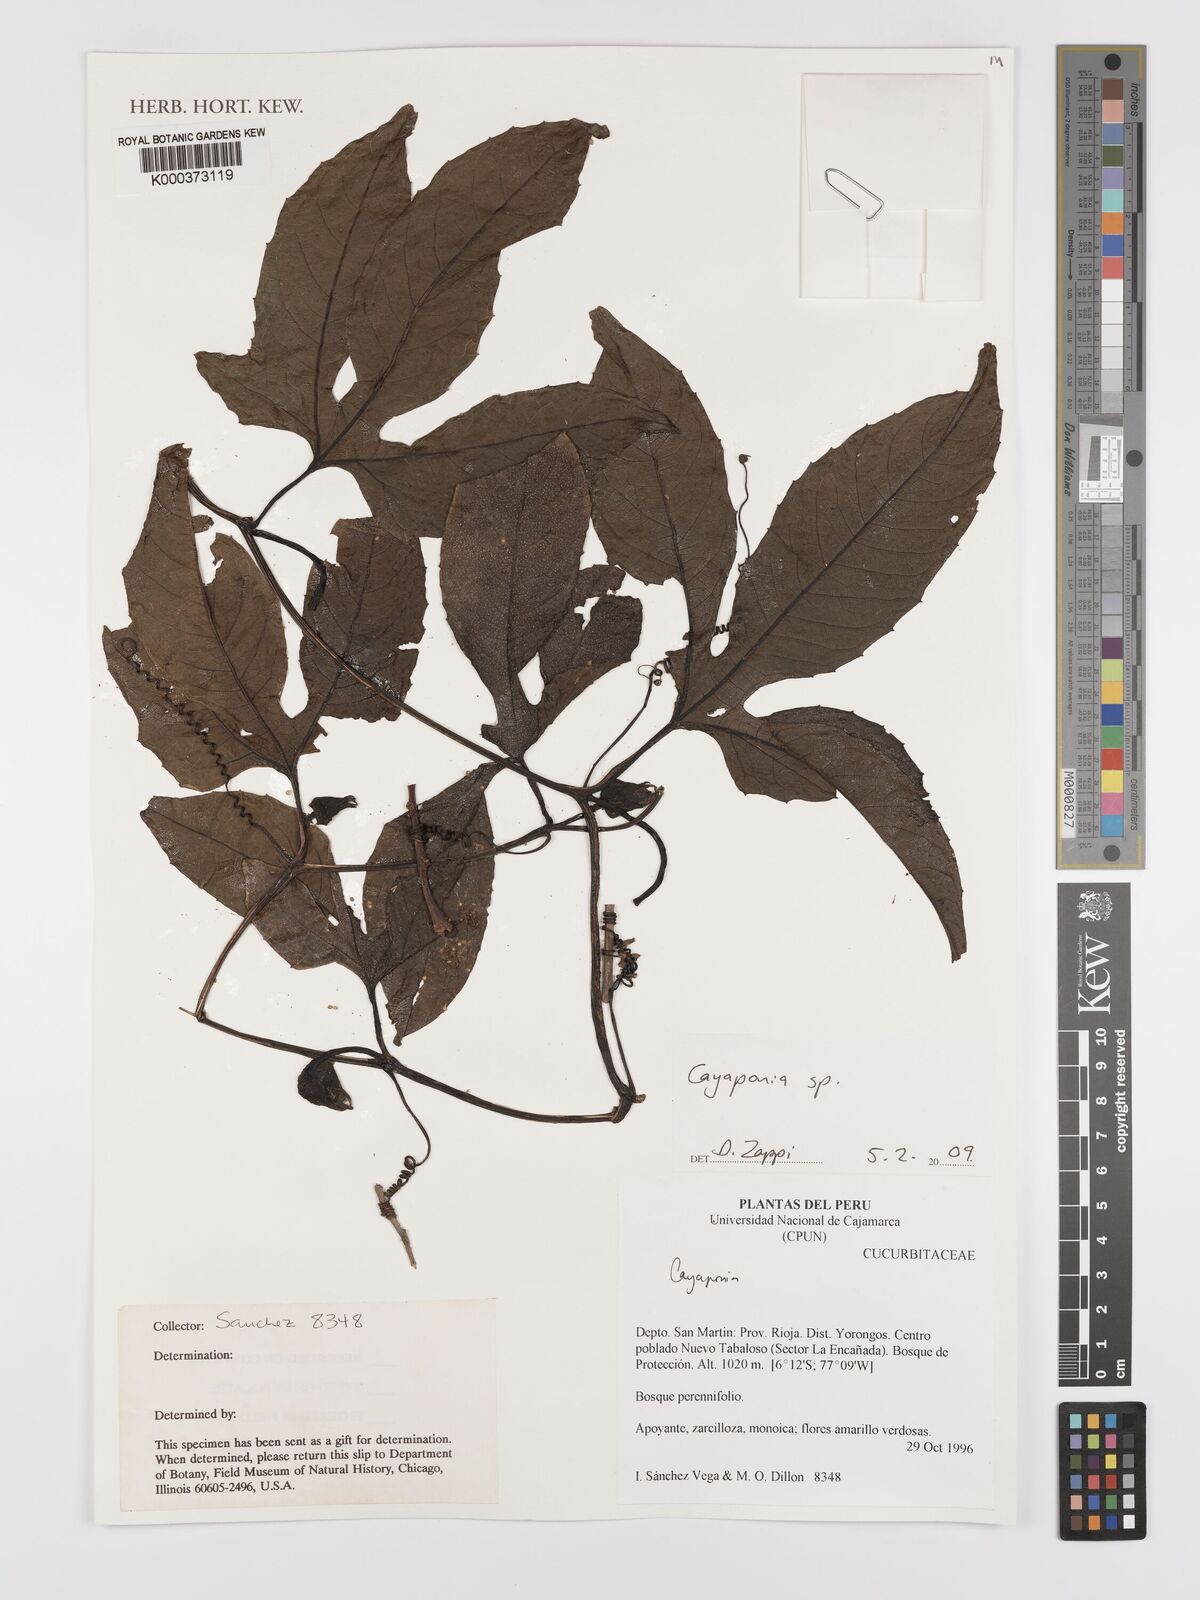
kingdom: Plantae
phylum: Tracheophyta
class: Magnoliopsida
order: Cucurbitales
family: Cucurbitaceae
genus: Cayaponia
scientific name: Cayaponia
